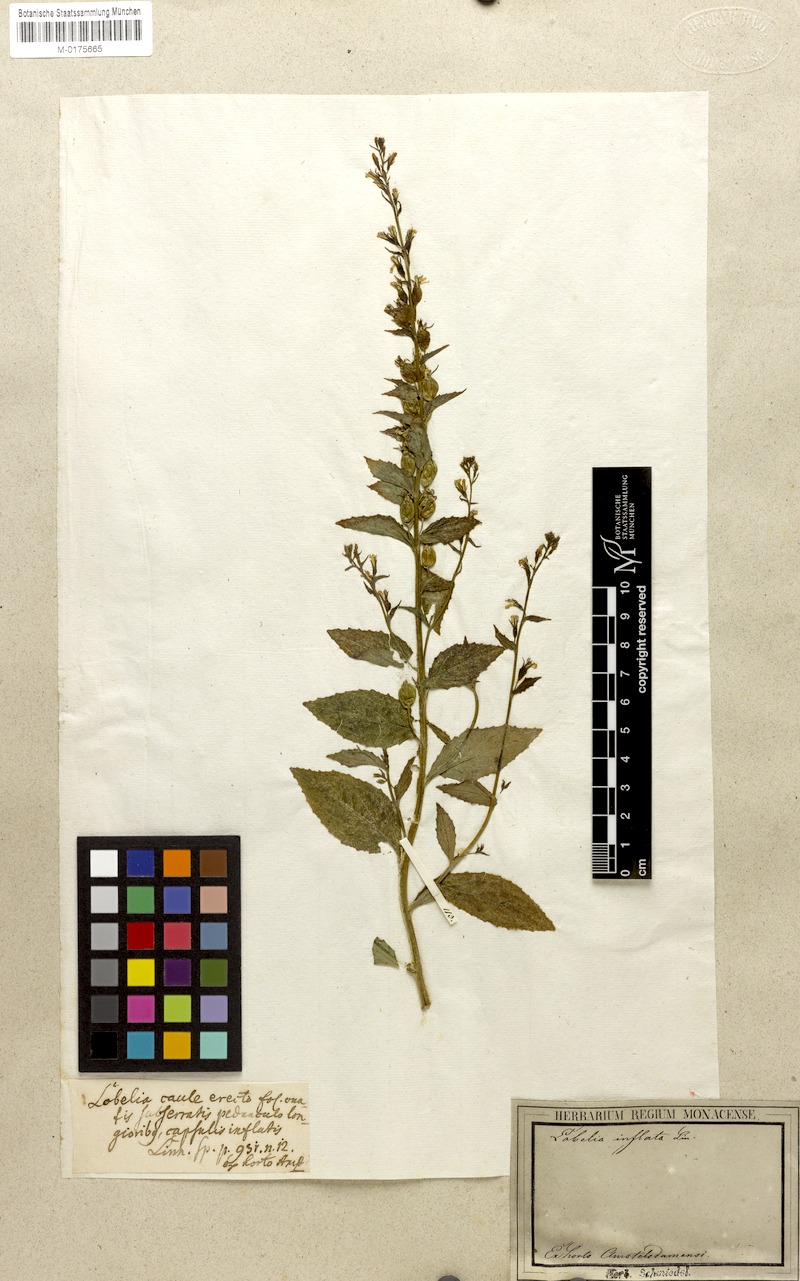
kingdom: Plantae
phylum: Tracheophyta
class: Magnoliopsida
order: Asterales
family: Campanulaceae
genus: Lobelia
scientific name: Lobelia inflata
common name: Indian tobacco
